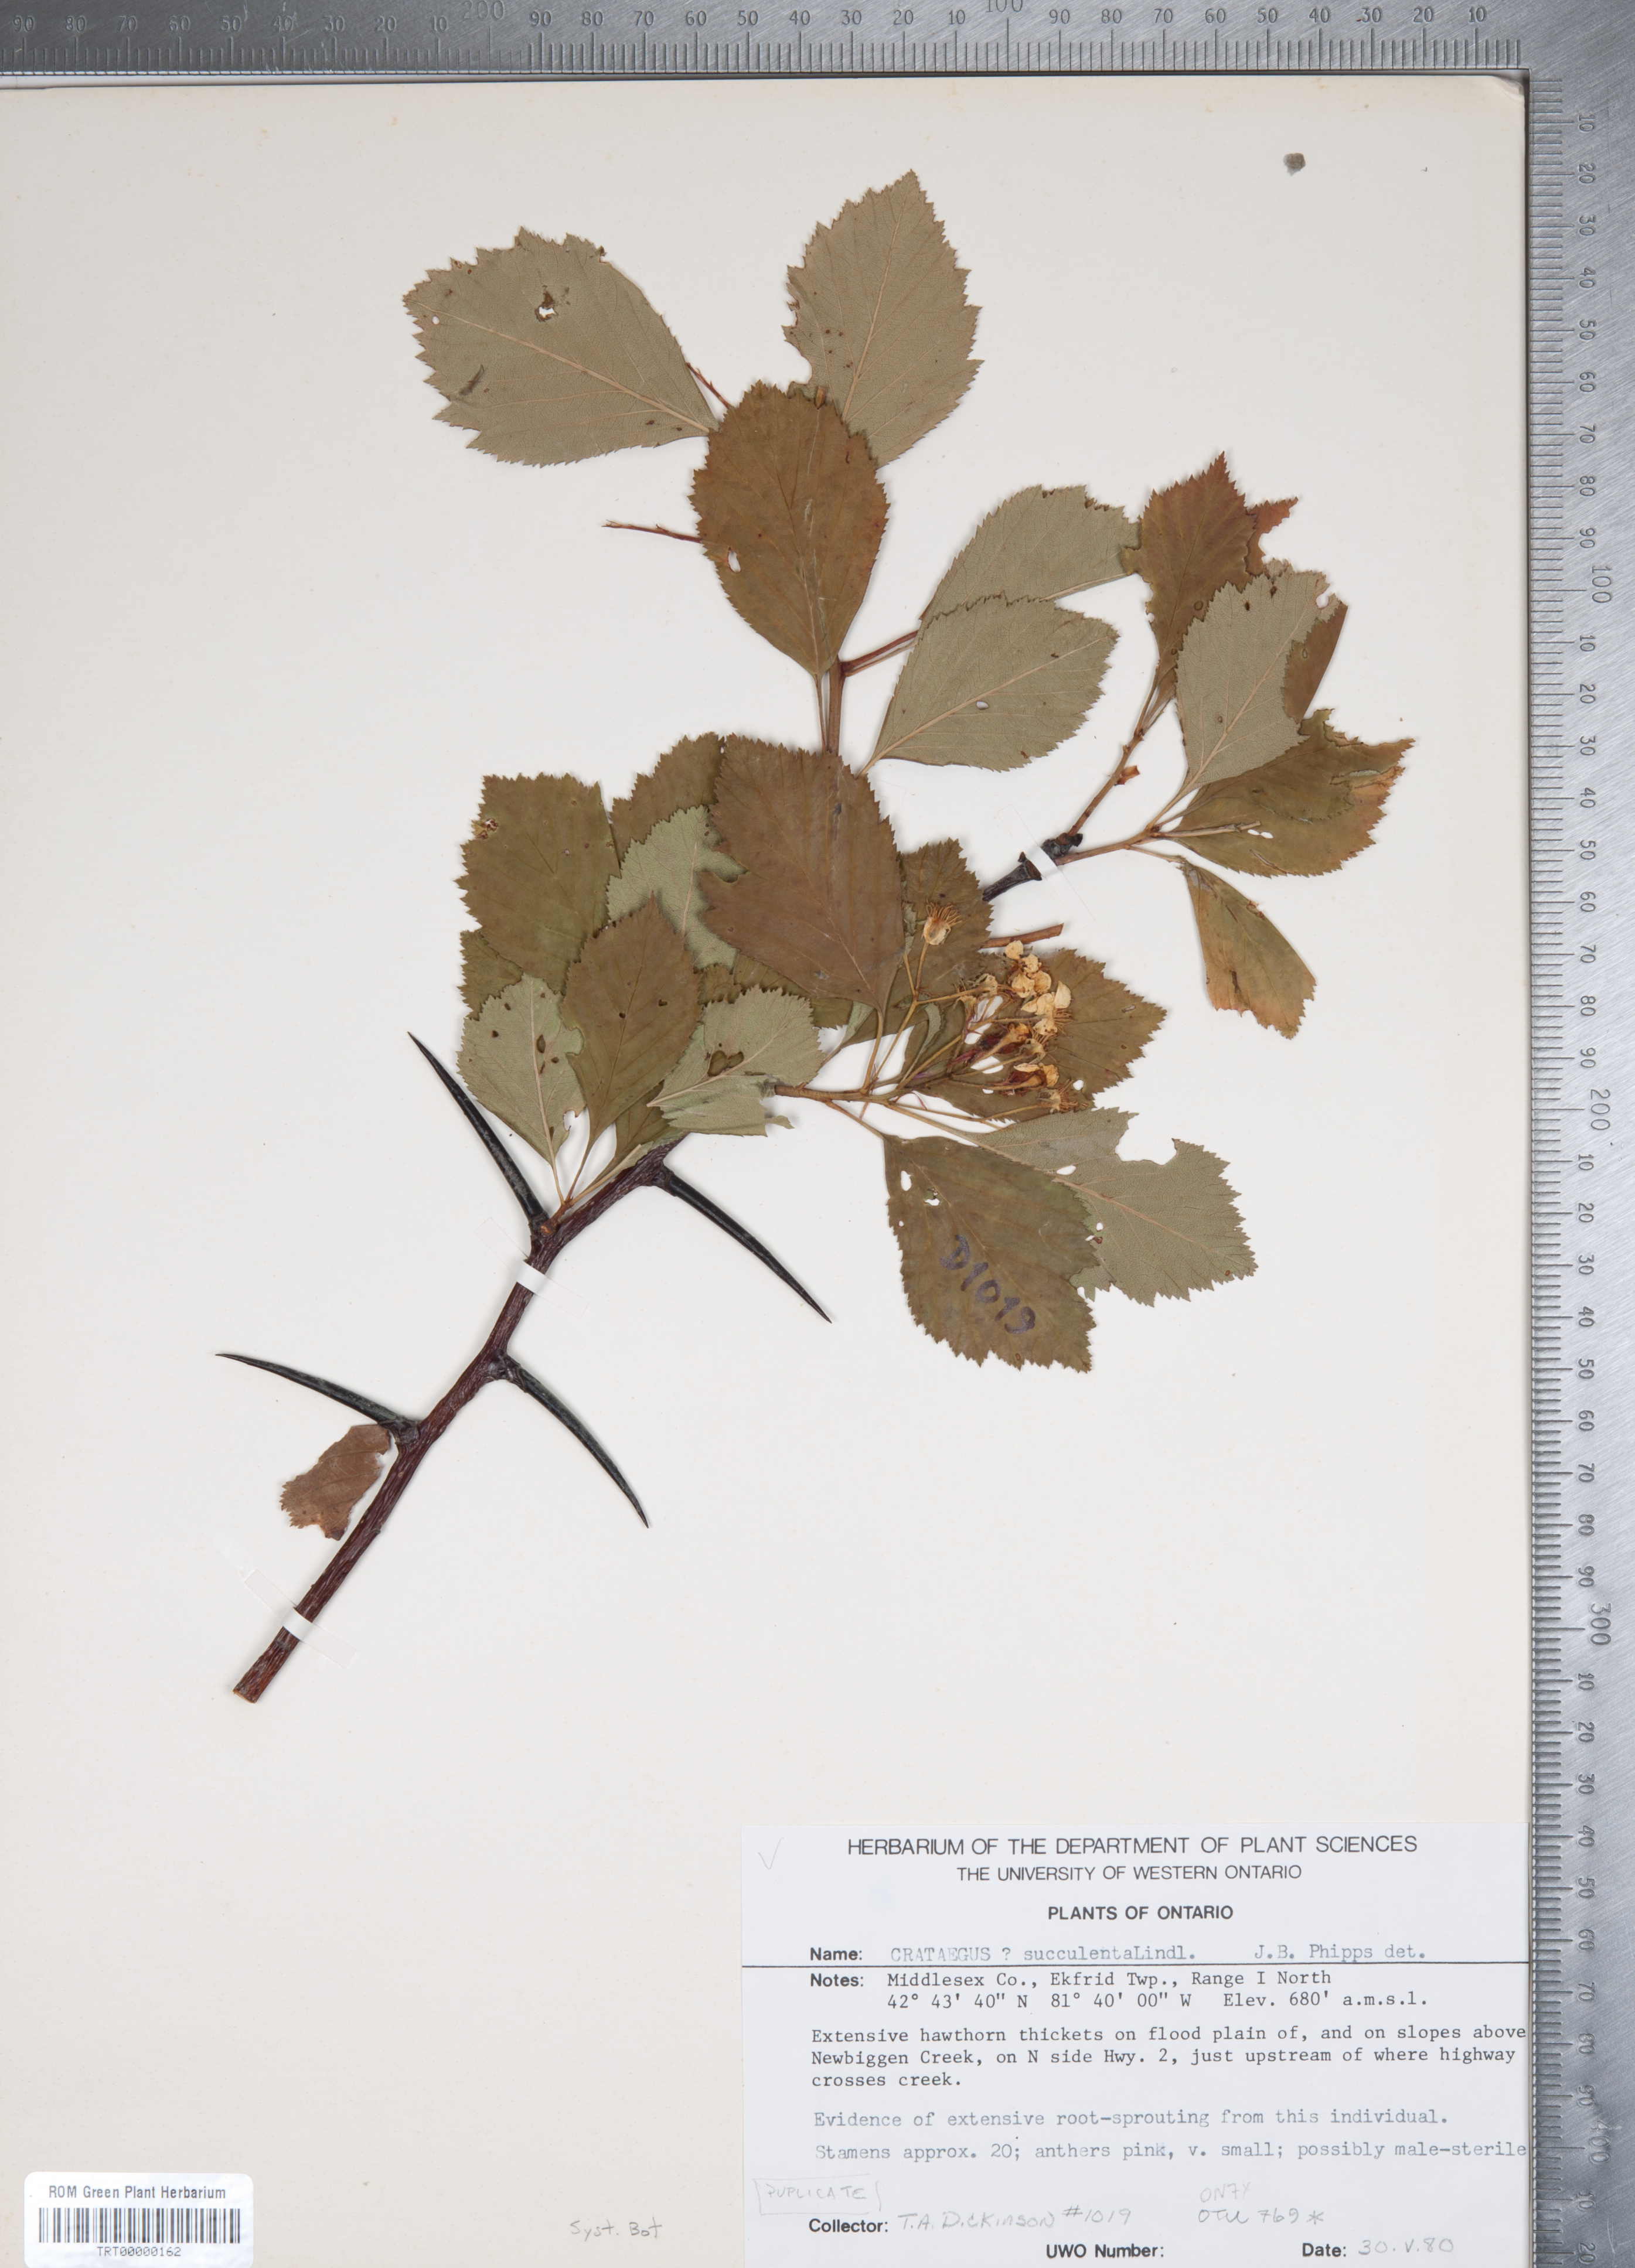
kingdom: Plantae
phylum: Tracheophyta
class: Magnoliopsida
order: Rosales
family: Rosaceae
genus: Crataegus
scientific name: Crataegus succulenta
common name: Fleshy hawthorn
